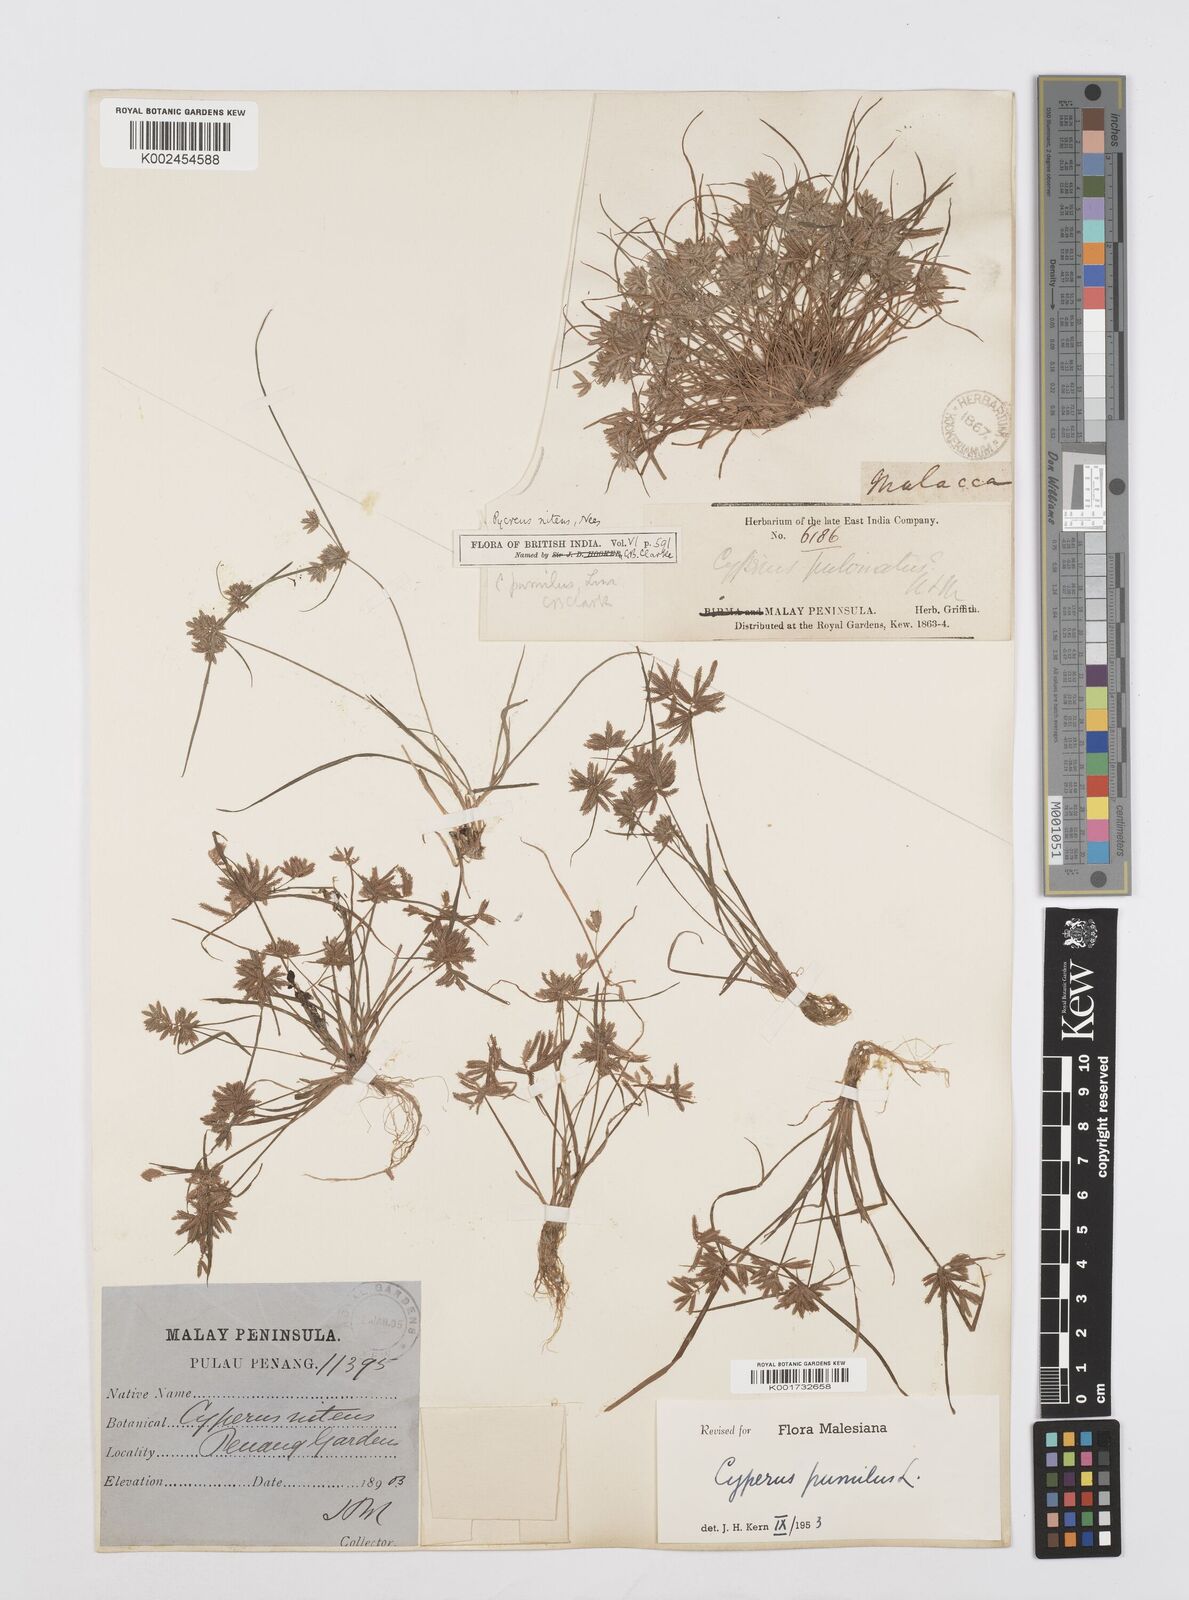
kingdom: Plantae
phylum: Tracheophyta
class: Liliopsida
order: Poales
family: Cyperaceae
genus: Cyperus
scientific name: Cyperus pumilus
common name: Low flatsedge
